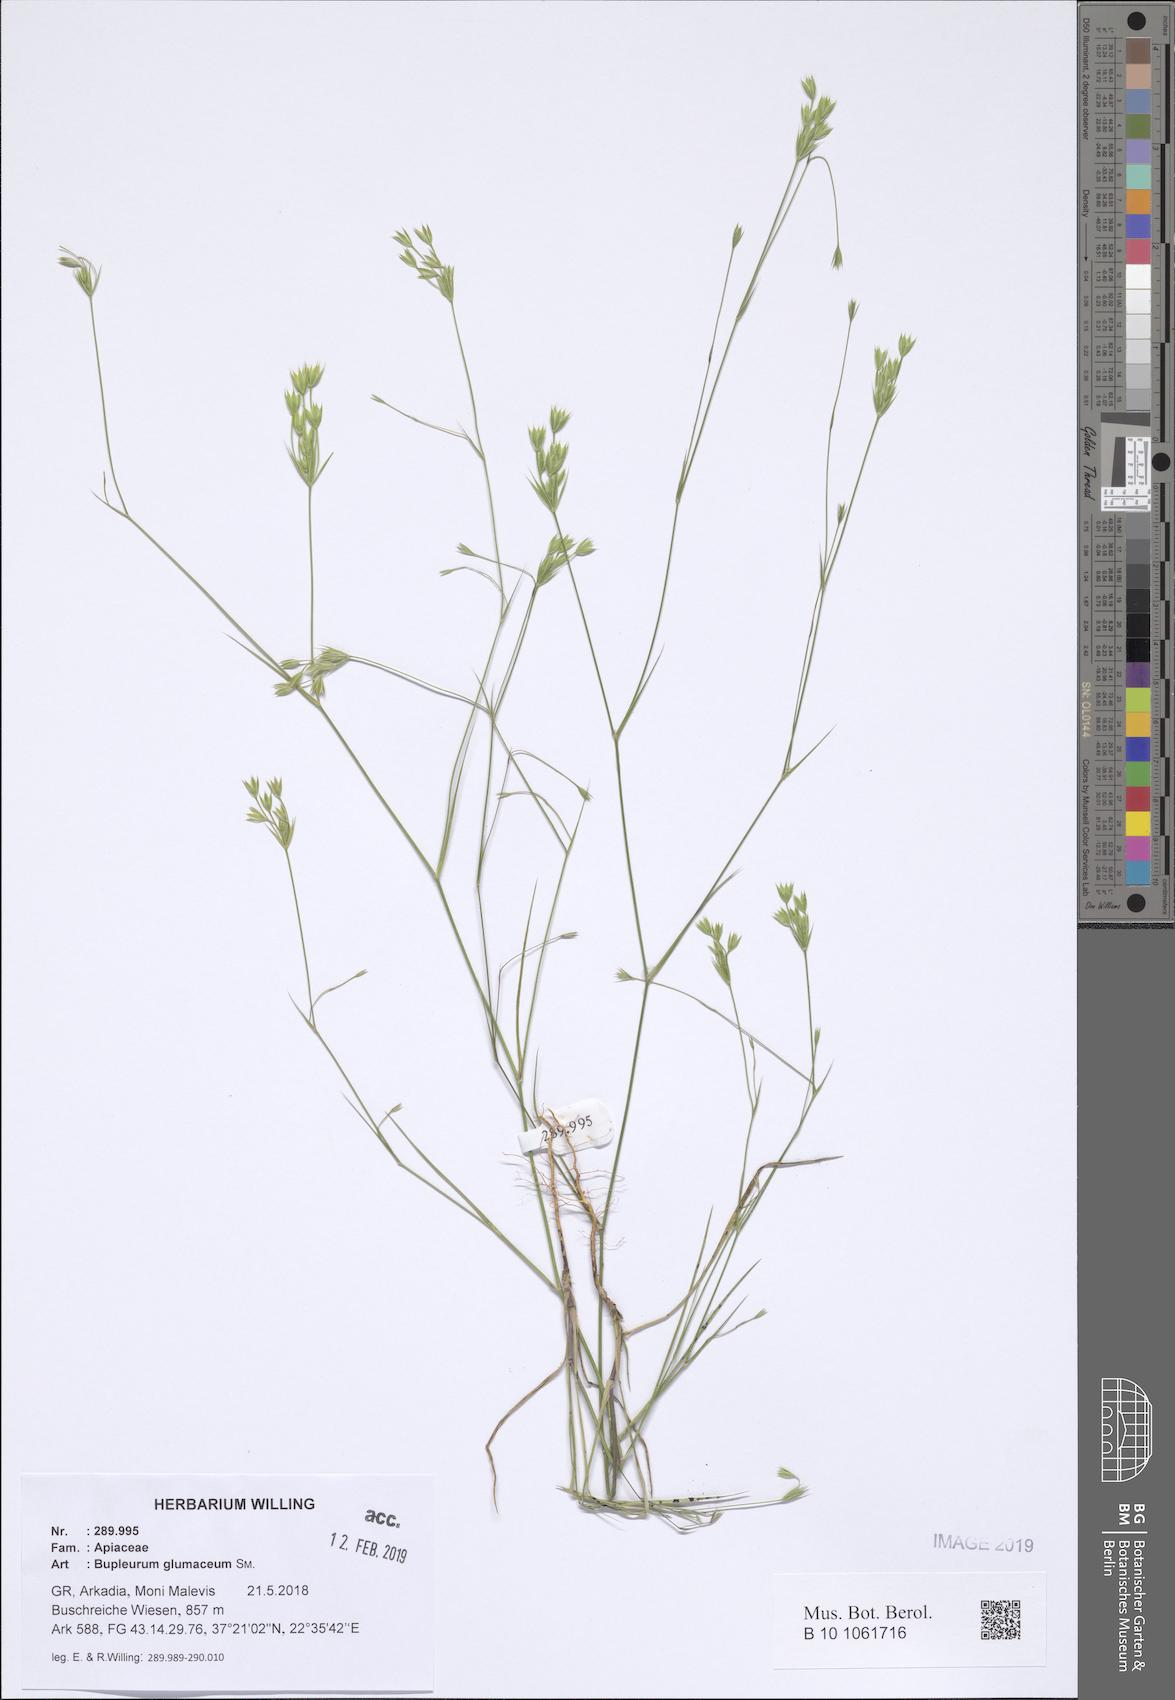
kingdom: Plantae
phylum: Tracheophyta
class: Magnoliopsida
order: Apiales
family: Apiaceae
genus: Bupleurum
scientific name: Bupleurum glumaceum
